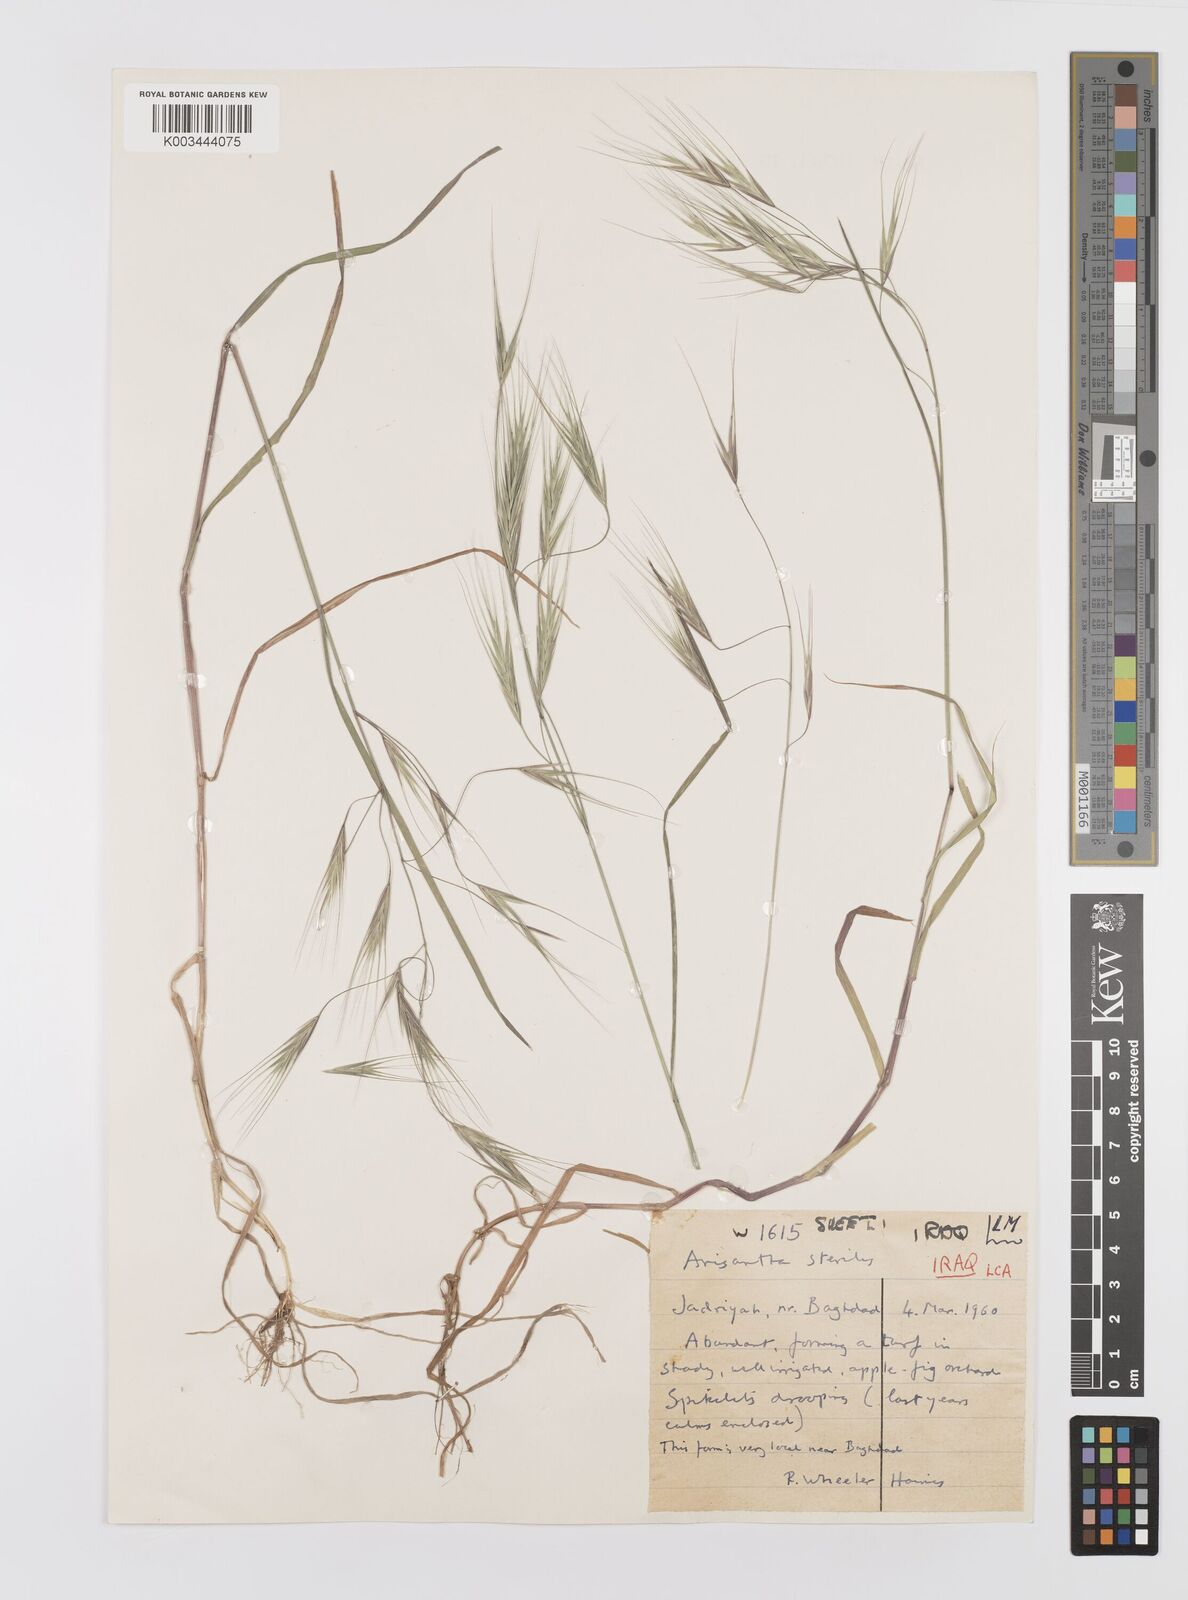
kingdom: Plantae
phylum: Tracheophyta
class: Liliopsida
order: Poales
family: Poaceae
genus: Bromus
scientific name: Bromus sterilis
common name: Poverty brome
